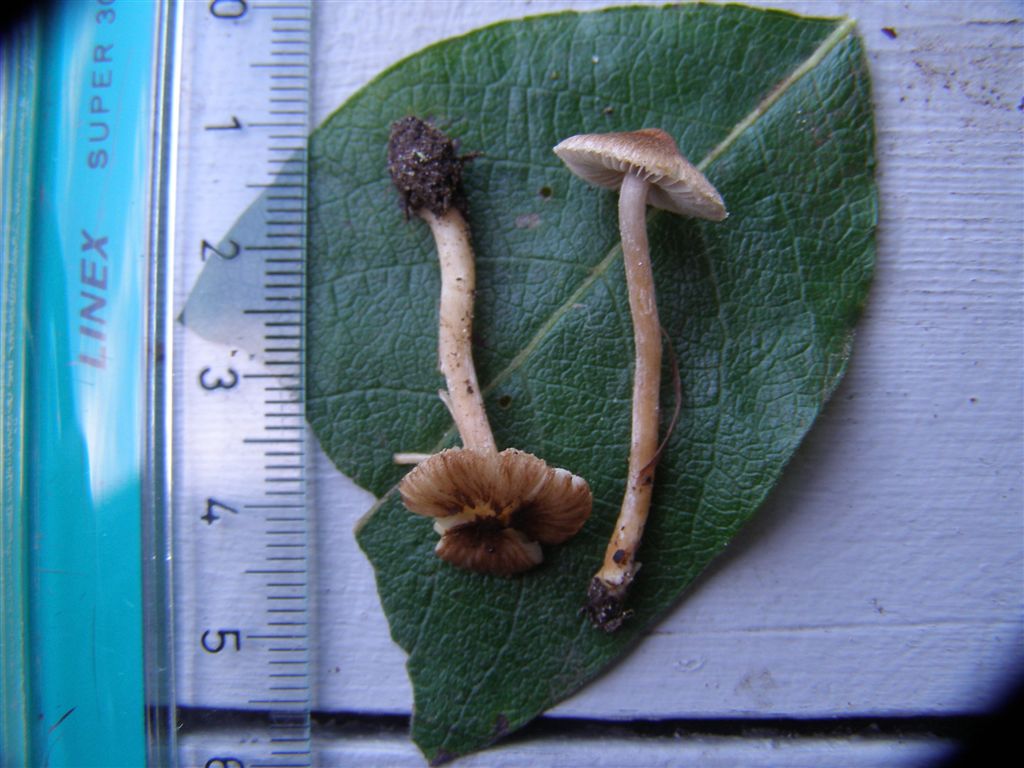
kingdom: Fungi
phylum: Basidiomycota
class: Agaricomycetes
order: Agaricales
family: Inocybaceae
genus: Inocybe
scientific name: Inocybe tjallingiorum
